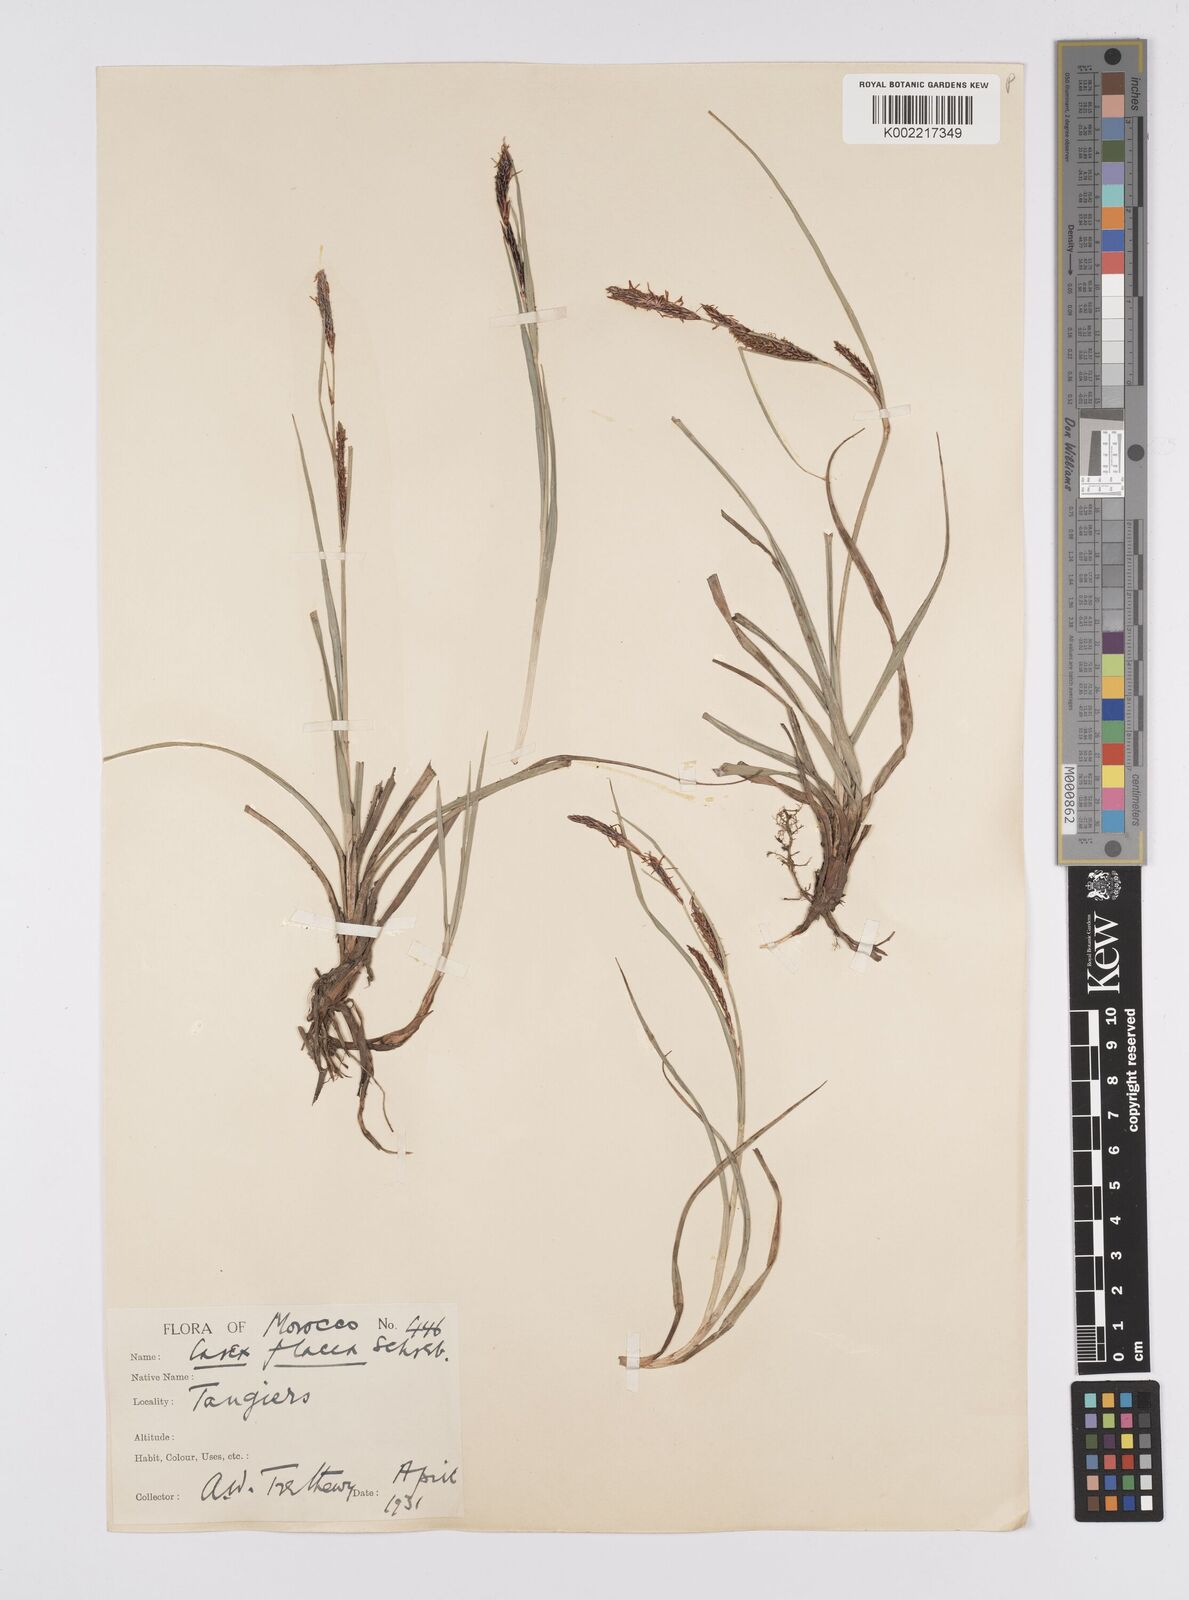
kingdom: Plantae
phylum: Tracheophyta
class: Liliopsida
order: Poales
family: Cyperaceae
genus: Carex
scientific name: Carex flacca
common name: Glaucous sedge
